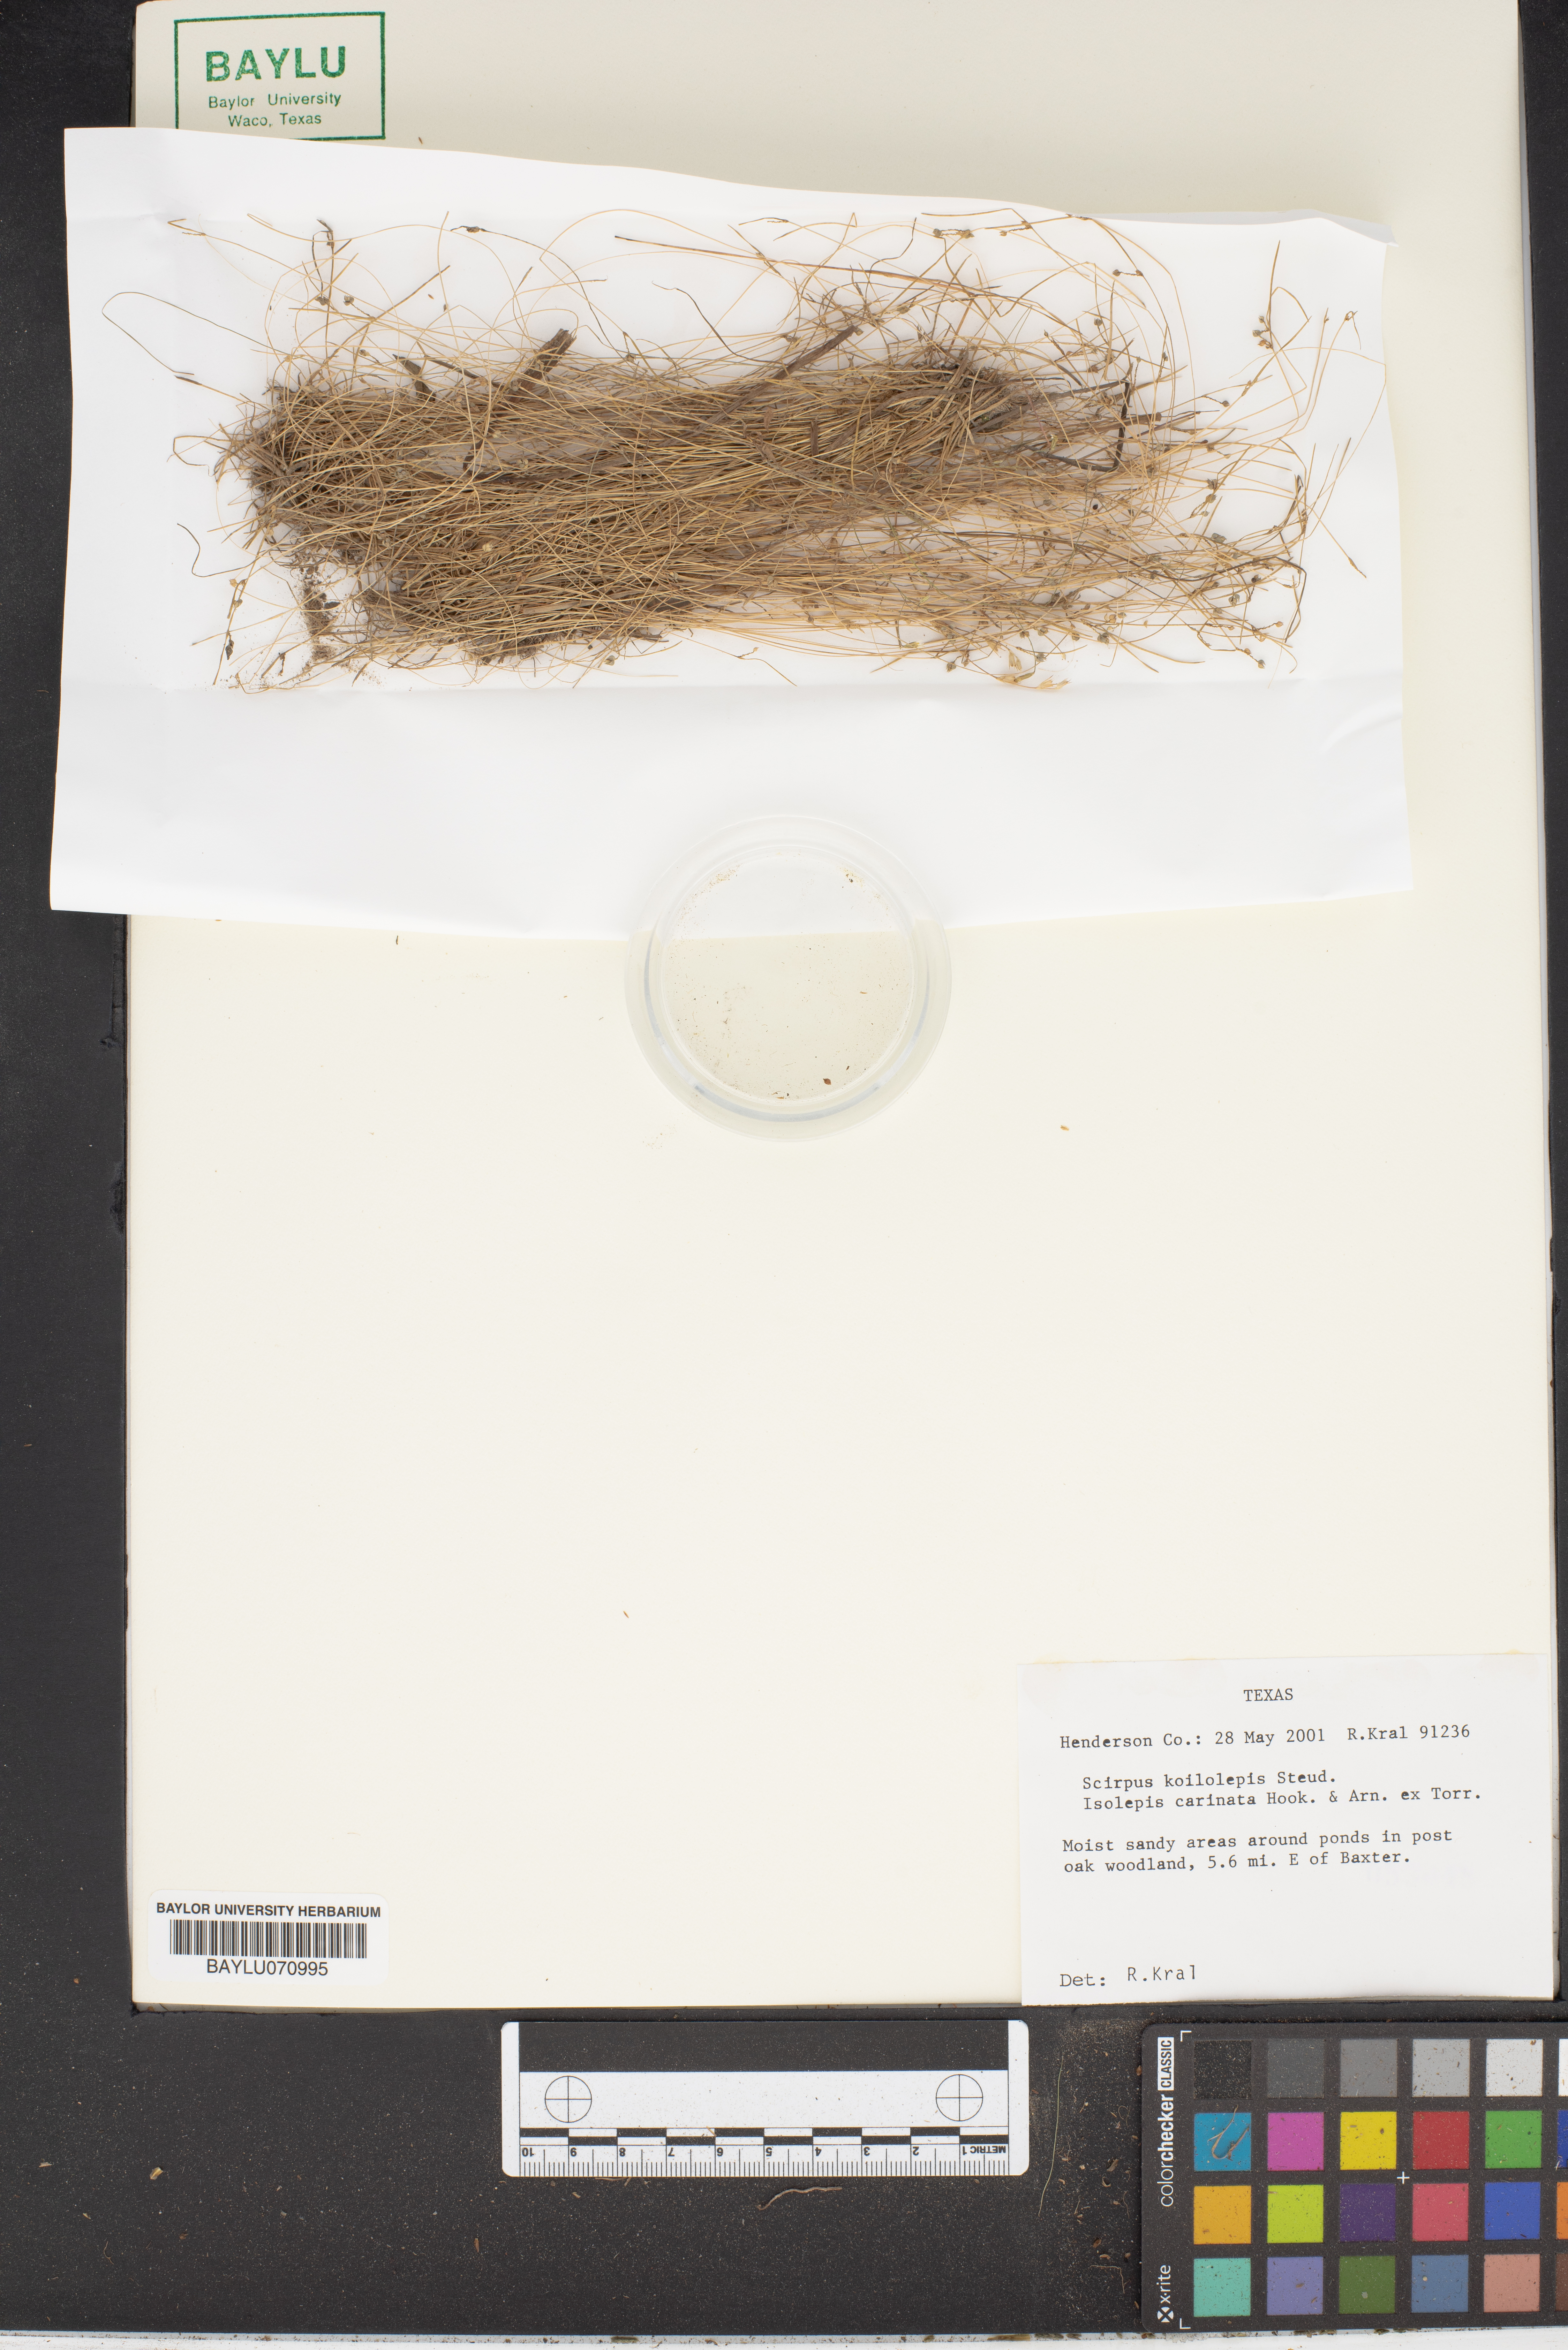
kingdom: Plantae
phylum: Tracheophyta
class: Liliopsida
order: Poales
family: Cyperaceae
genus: Isolepis
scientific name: Isolepis carinata
